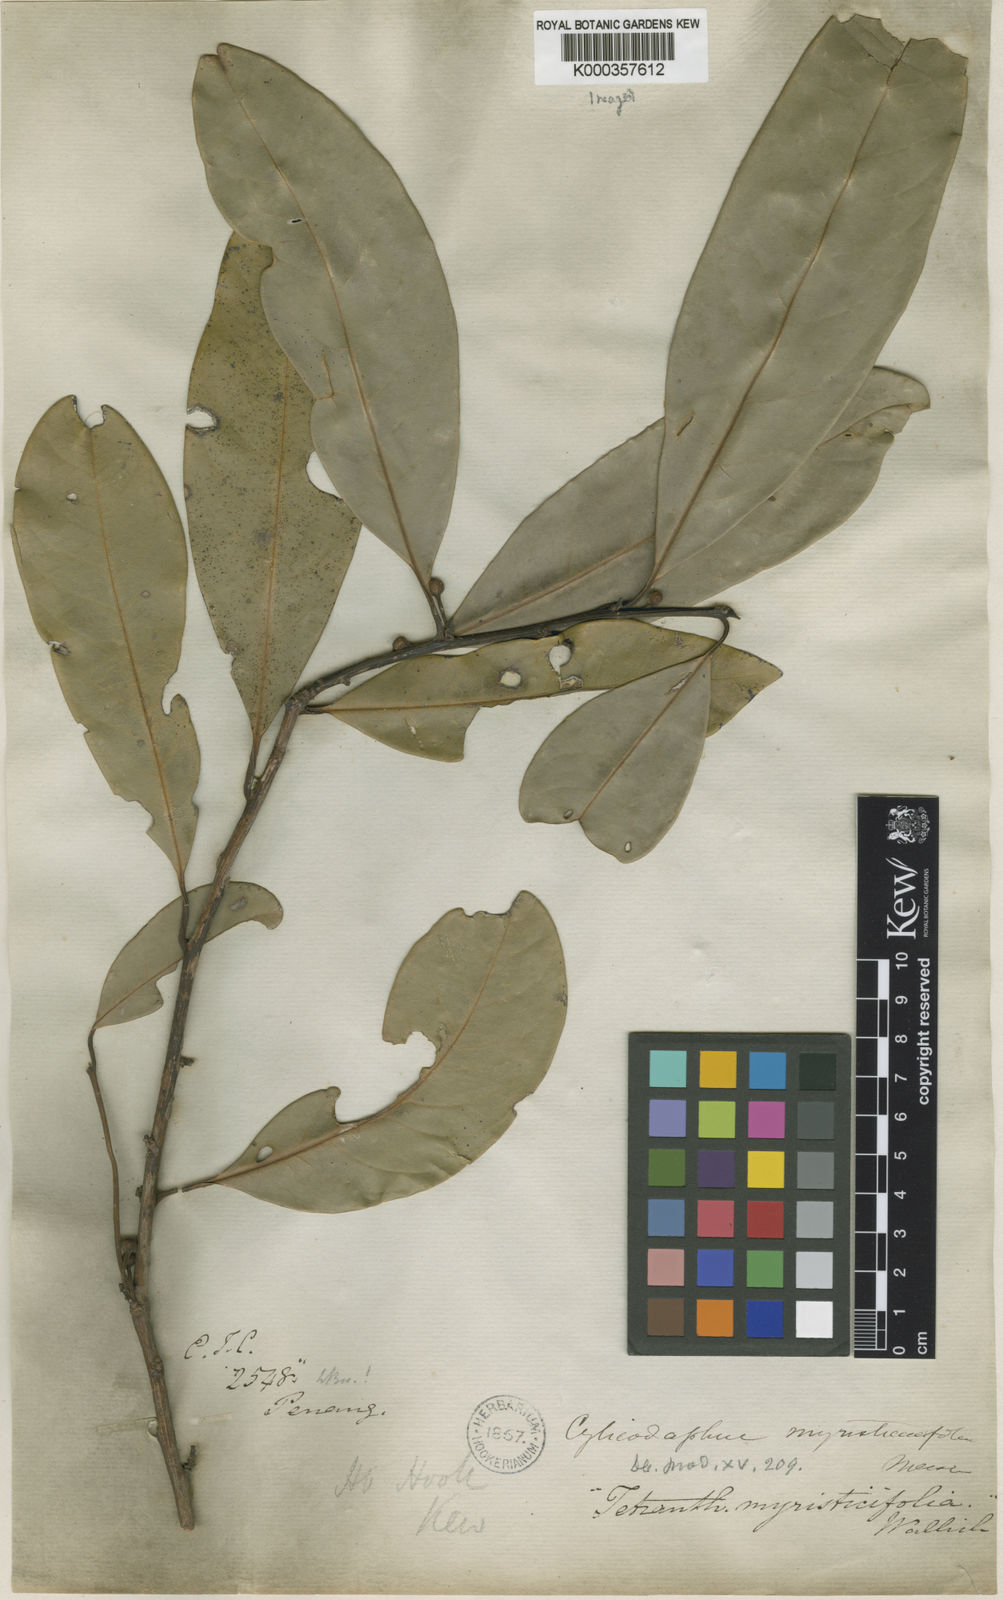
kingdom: Plantae
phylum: Tracheophyta
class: Magnoliopsida
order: Laurales
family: Lauraceae
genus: Litsea
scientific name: Litsea myristicifolia
